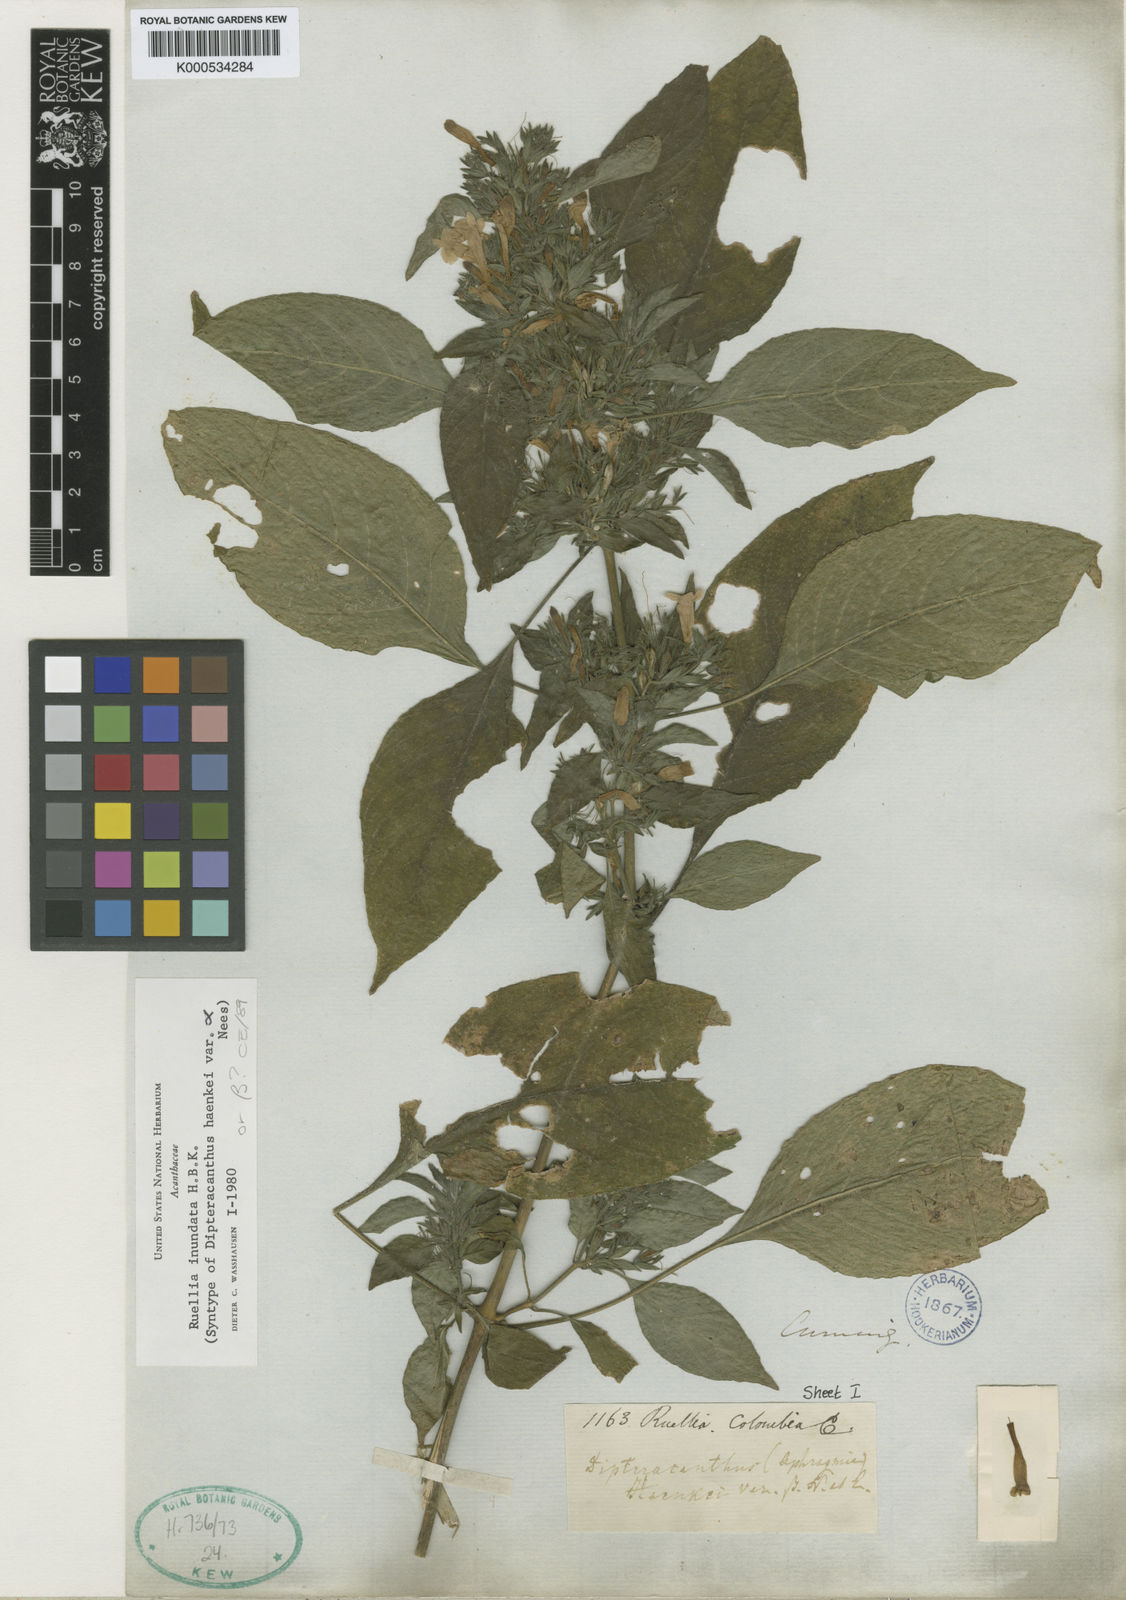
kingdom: Plantae
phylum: Tracheophyta
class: Magnoliopsida
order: Lamiales
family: Acanthaceae
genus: Ruellia
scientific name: Ruellia inundata
